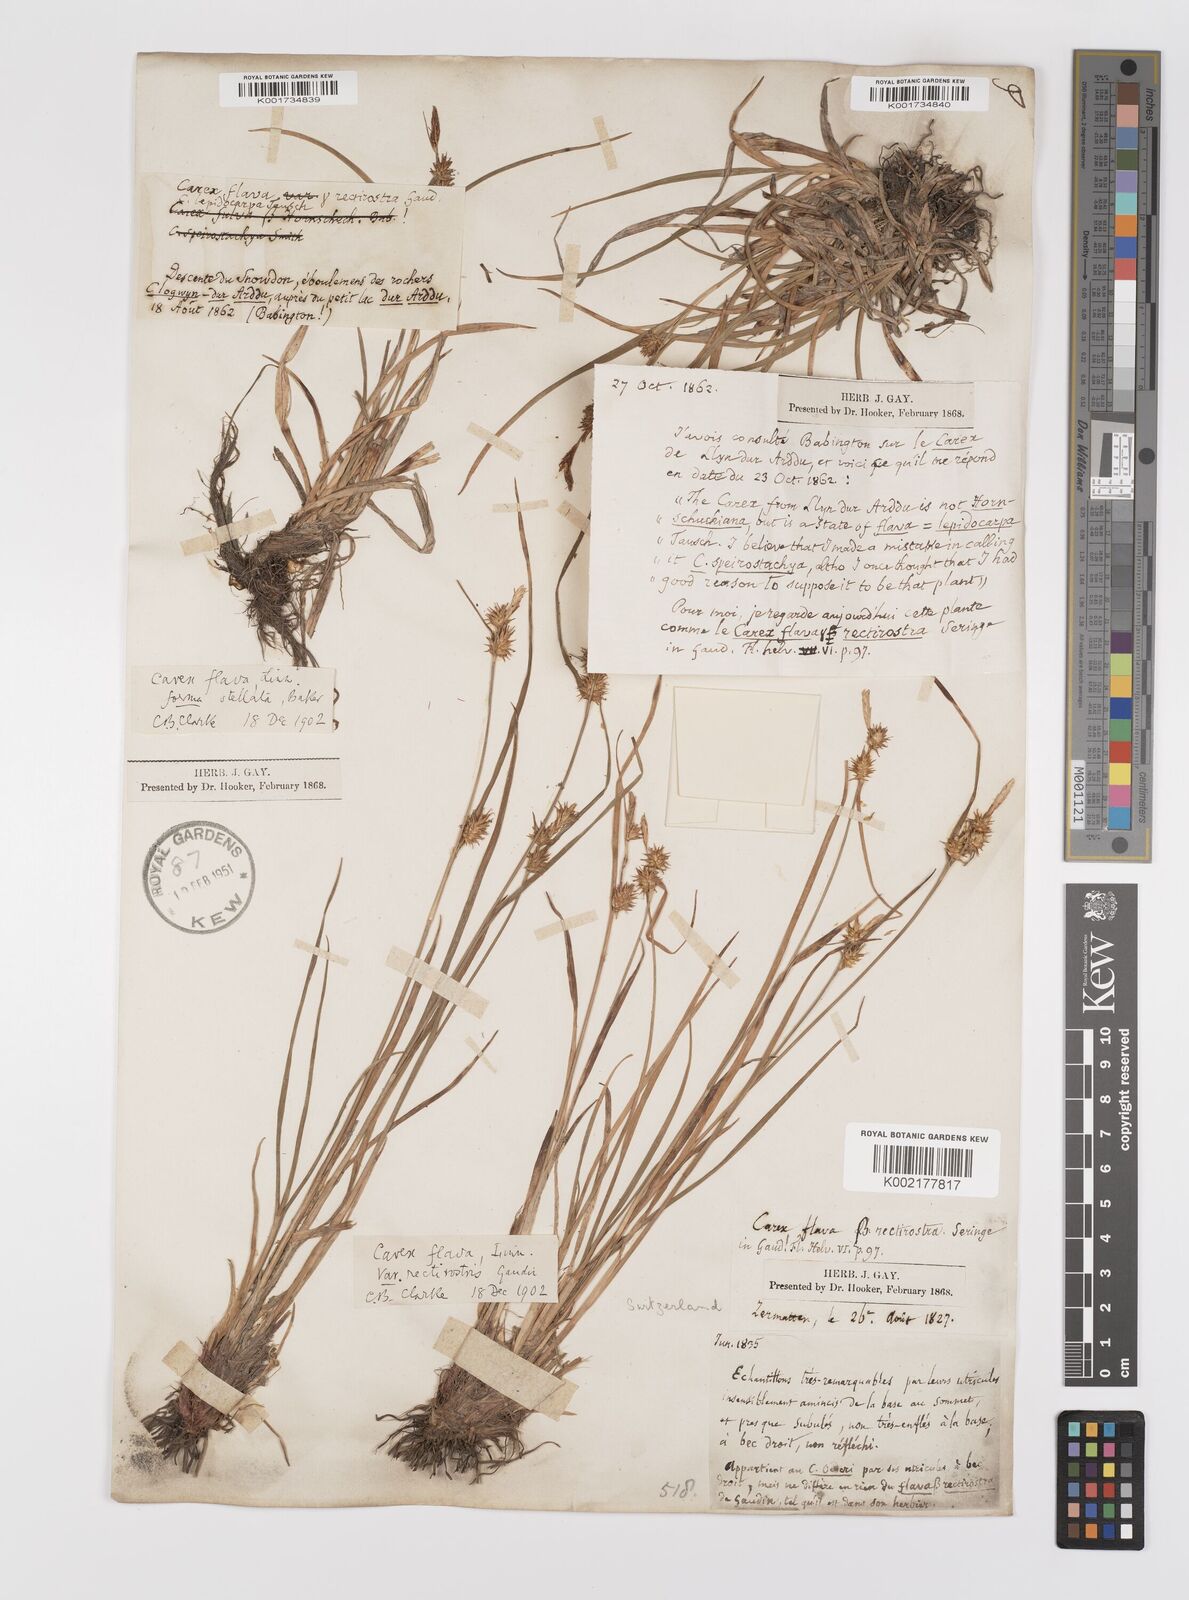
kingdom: Plantae
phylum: Tracheophyta
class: Liliopsida
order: Poales
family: Cyperaceae
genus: Carex
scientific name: Carex flava
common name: Large yellow-sedge
